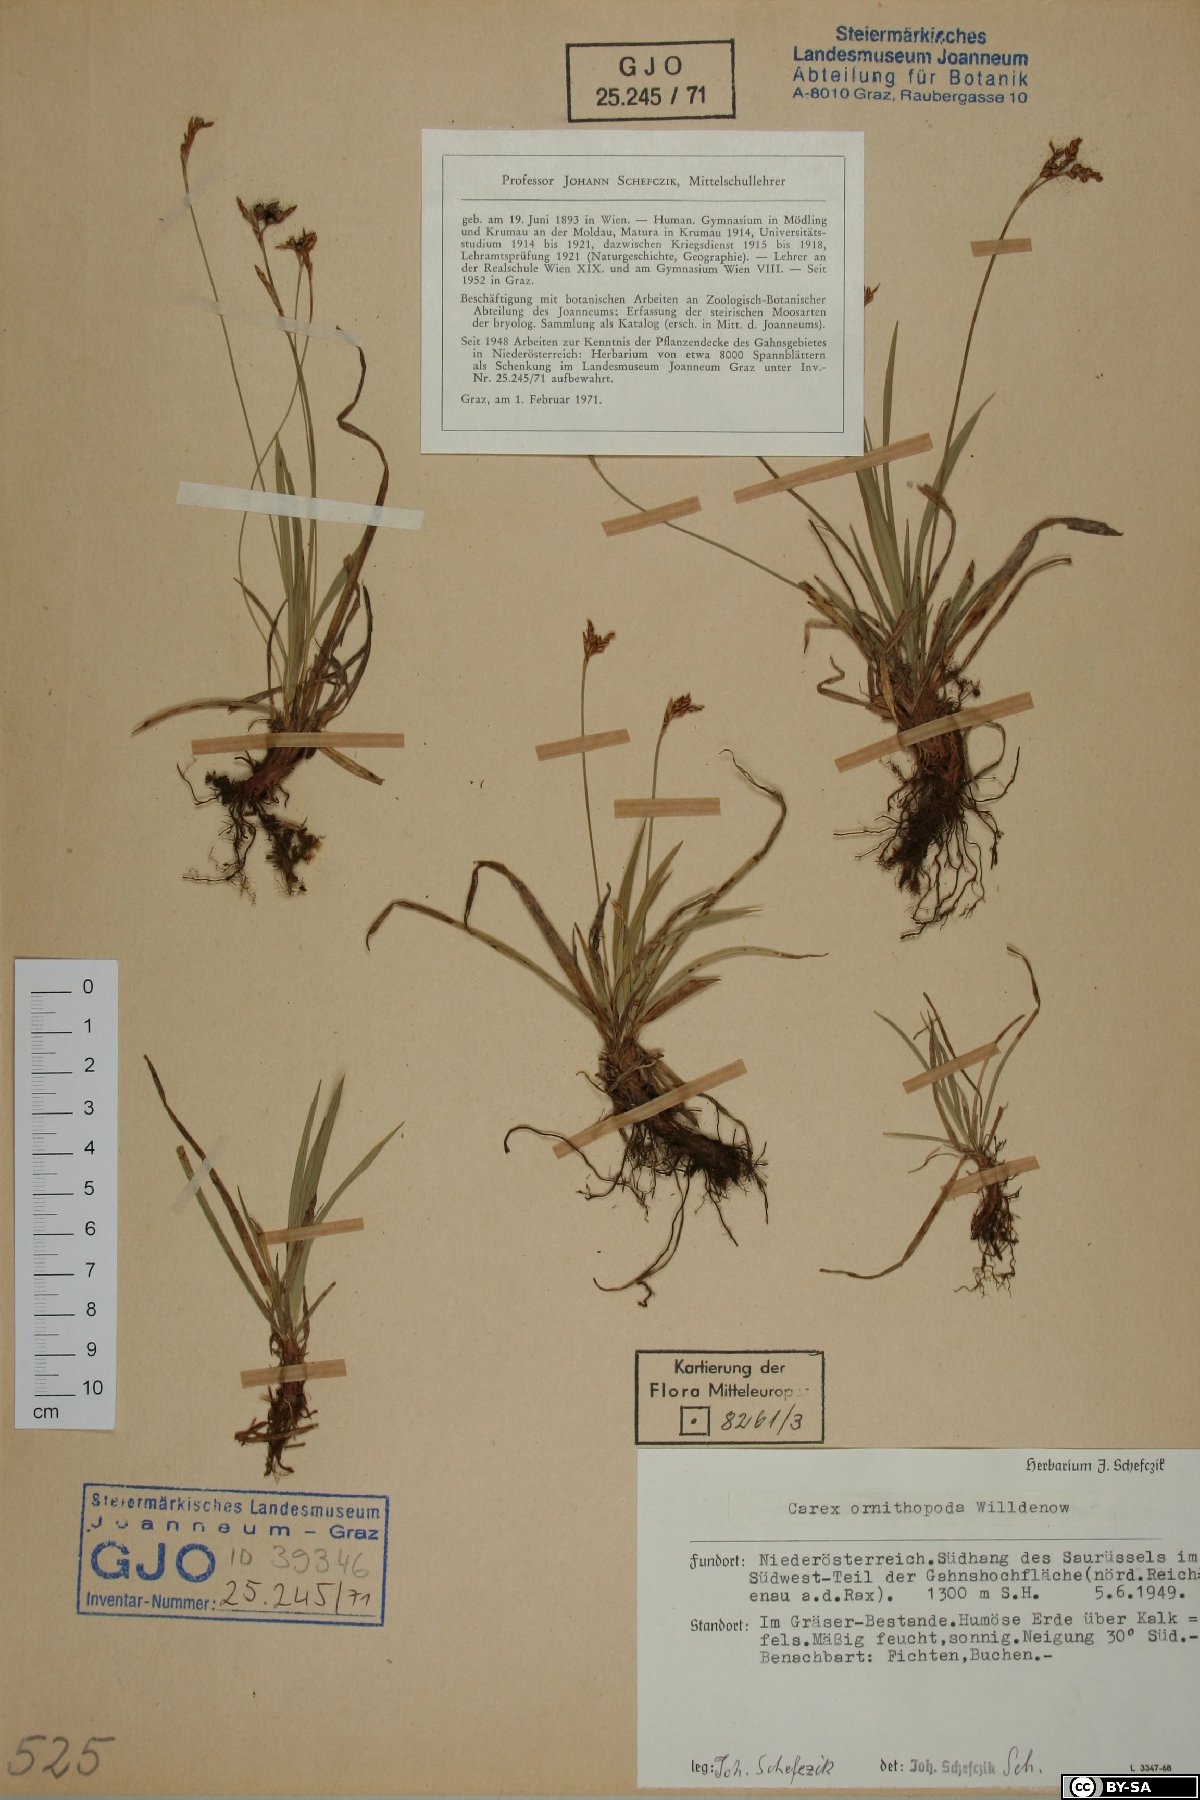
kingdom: Plantae
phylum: Tracheophyta
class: Liliopsida
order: Poales
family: Cyperaceae
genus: Carex
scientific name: Carex ornithopoda
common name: Bird's-foot sedge
